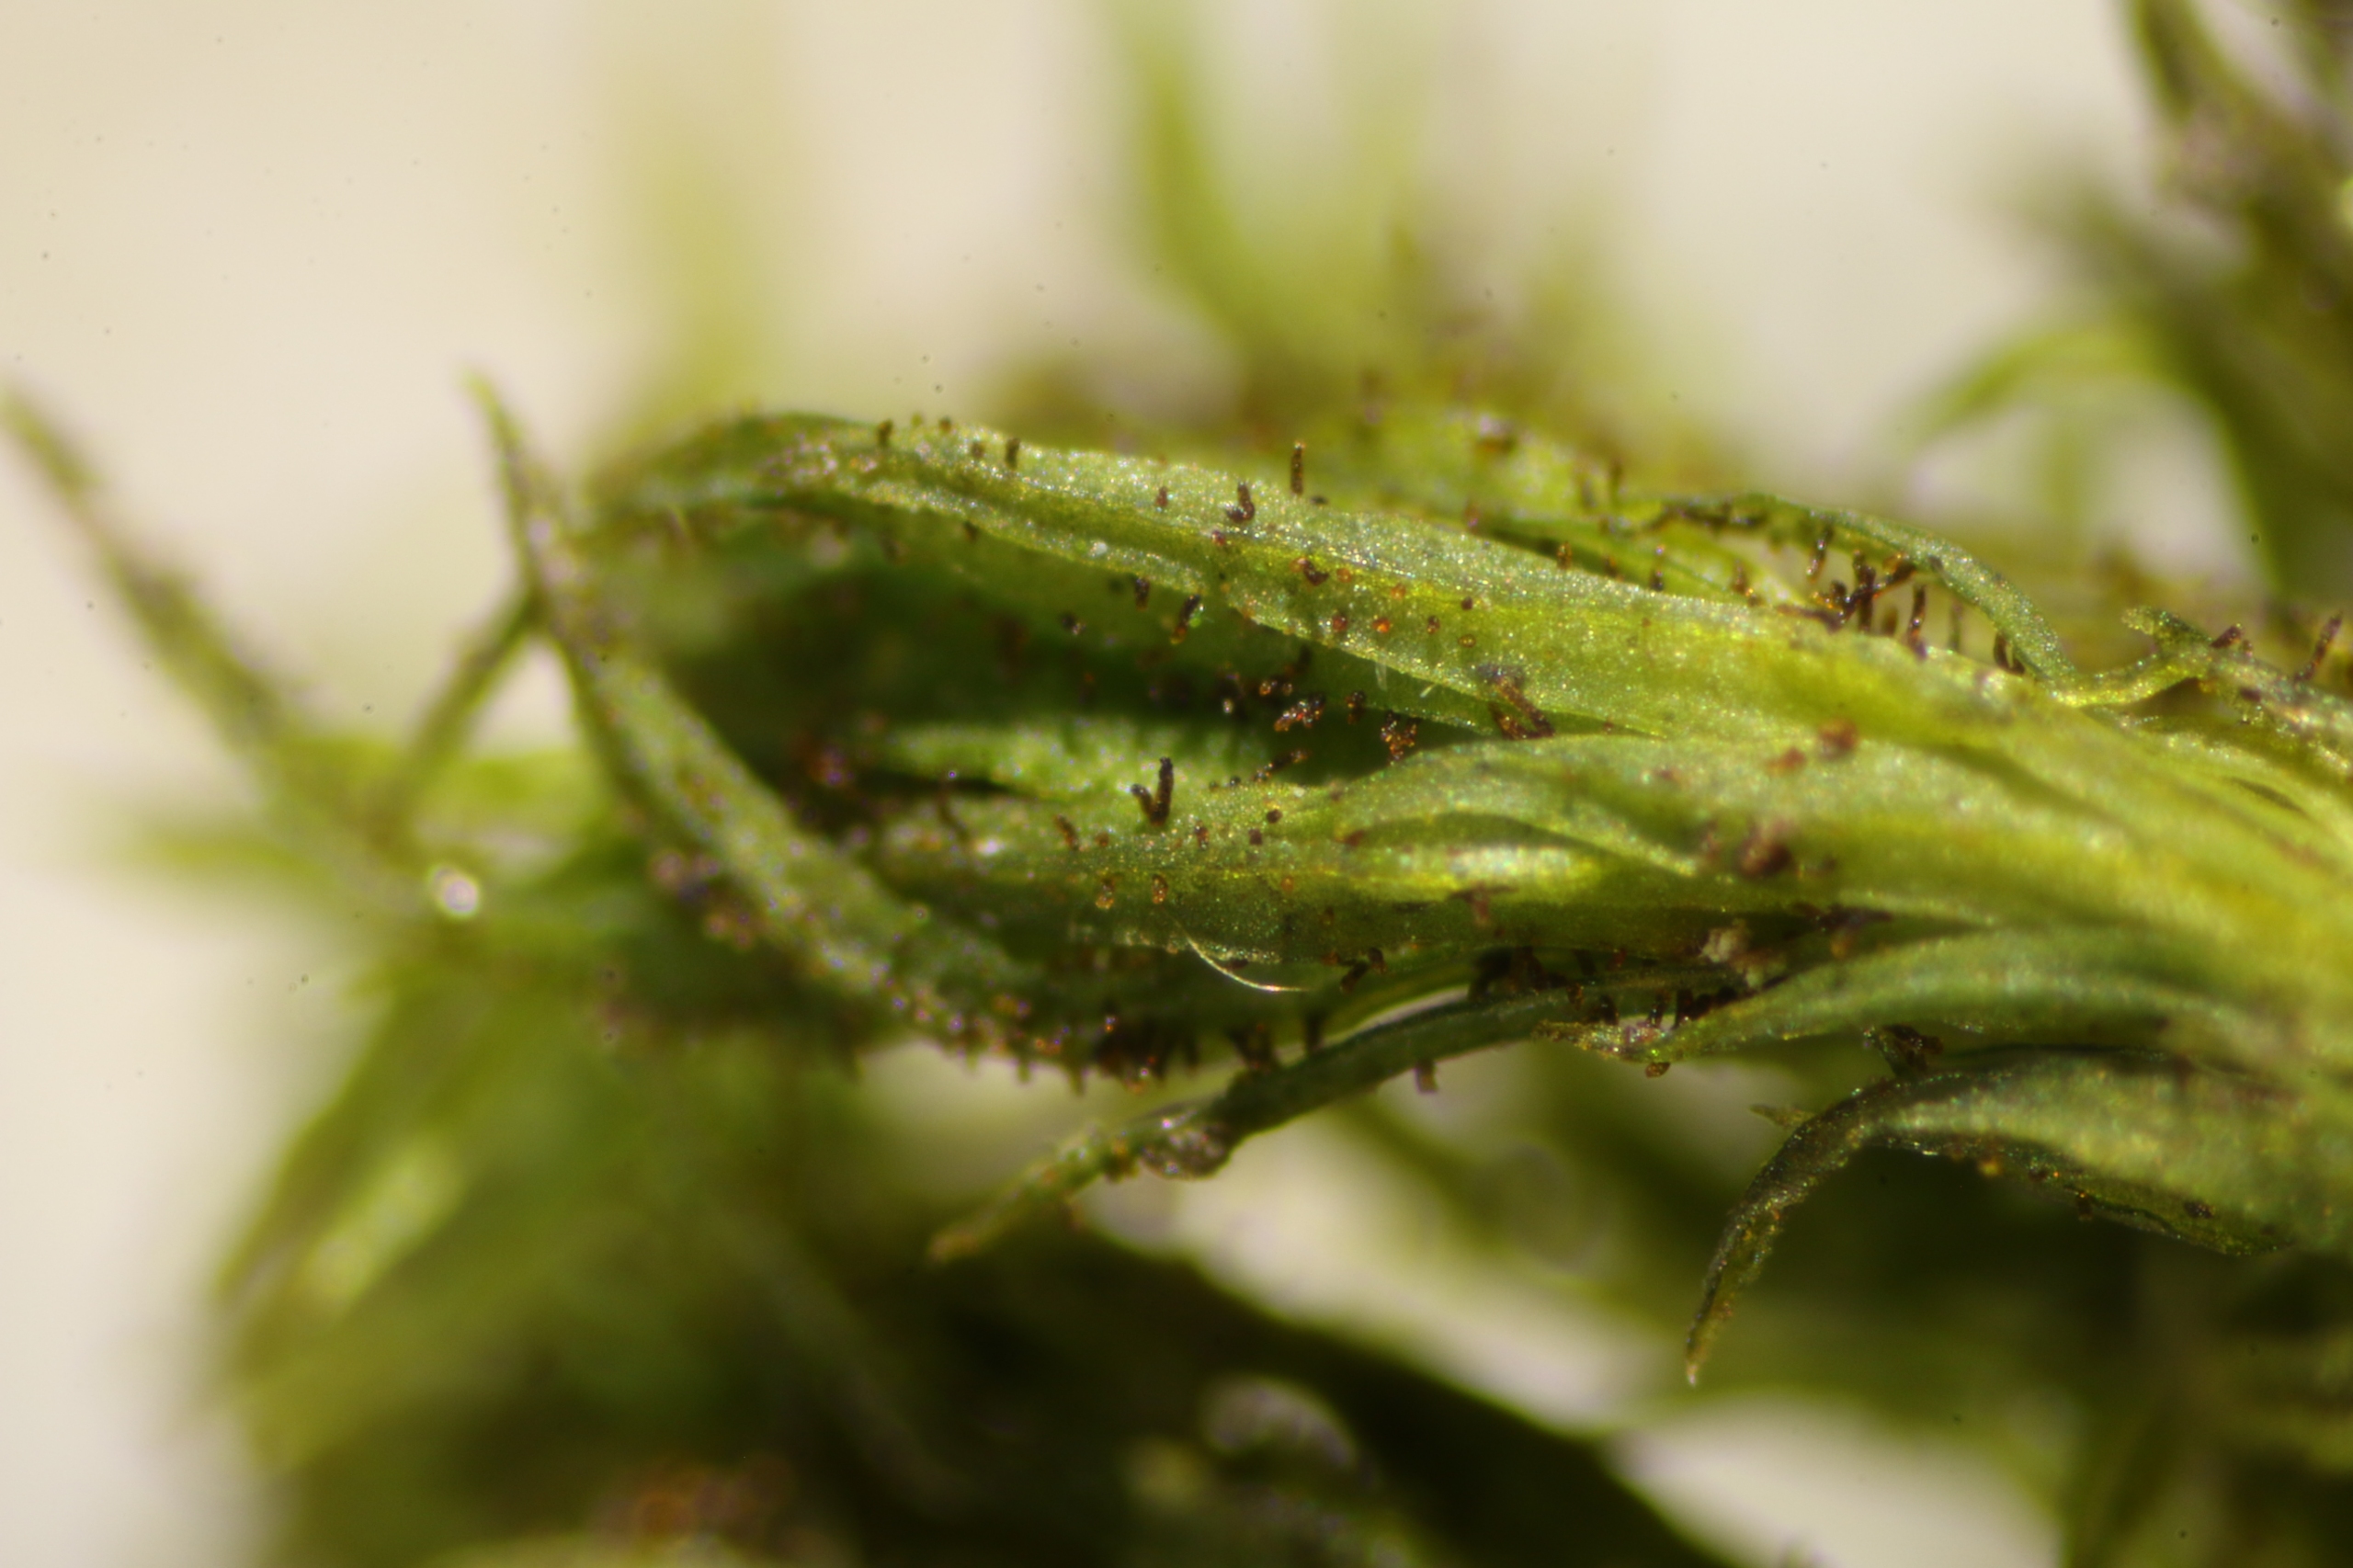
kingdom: Plantae
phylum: Bryophyta
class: Bryopsida
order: Orthotrichales
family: Orthotrichaceae
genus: Pulvigera
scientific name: Pulvigera lyellii
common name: Stor furehætte
